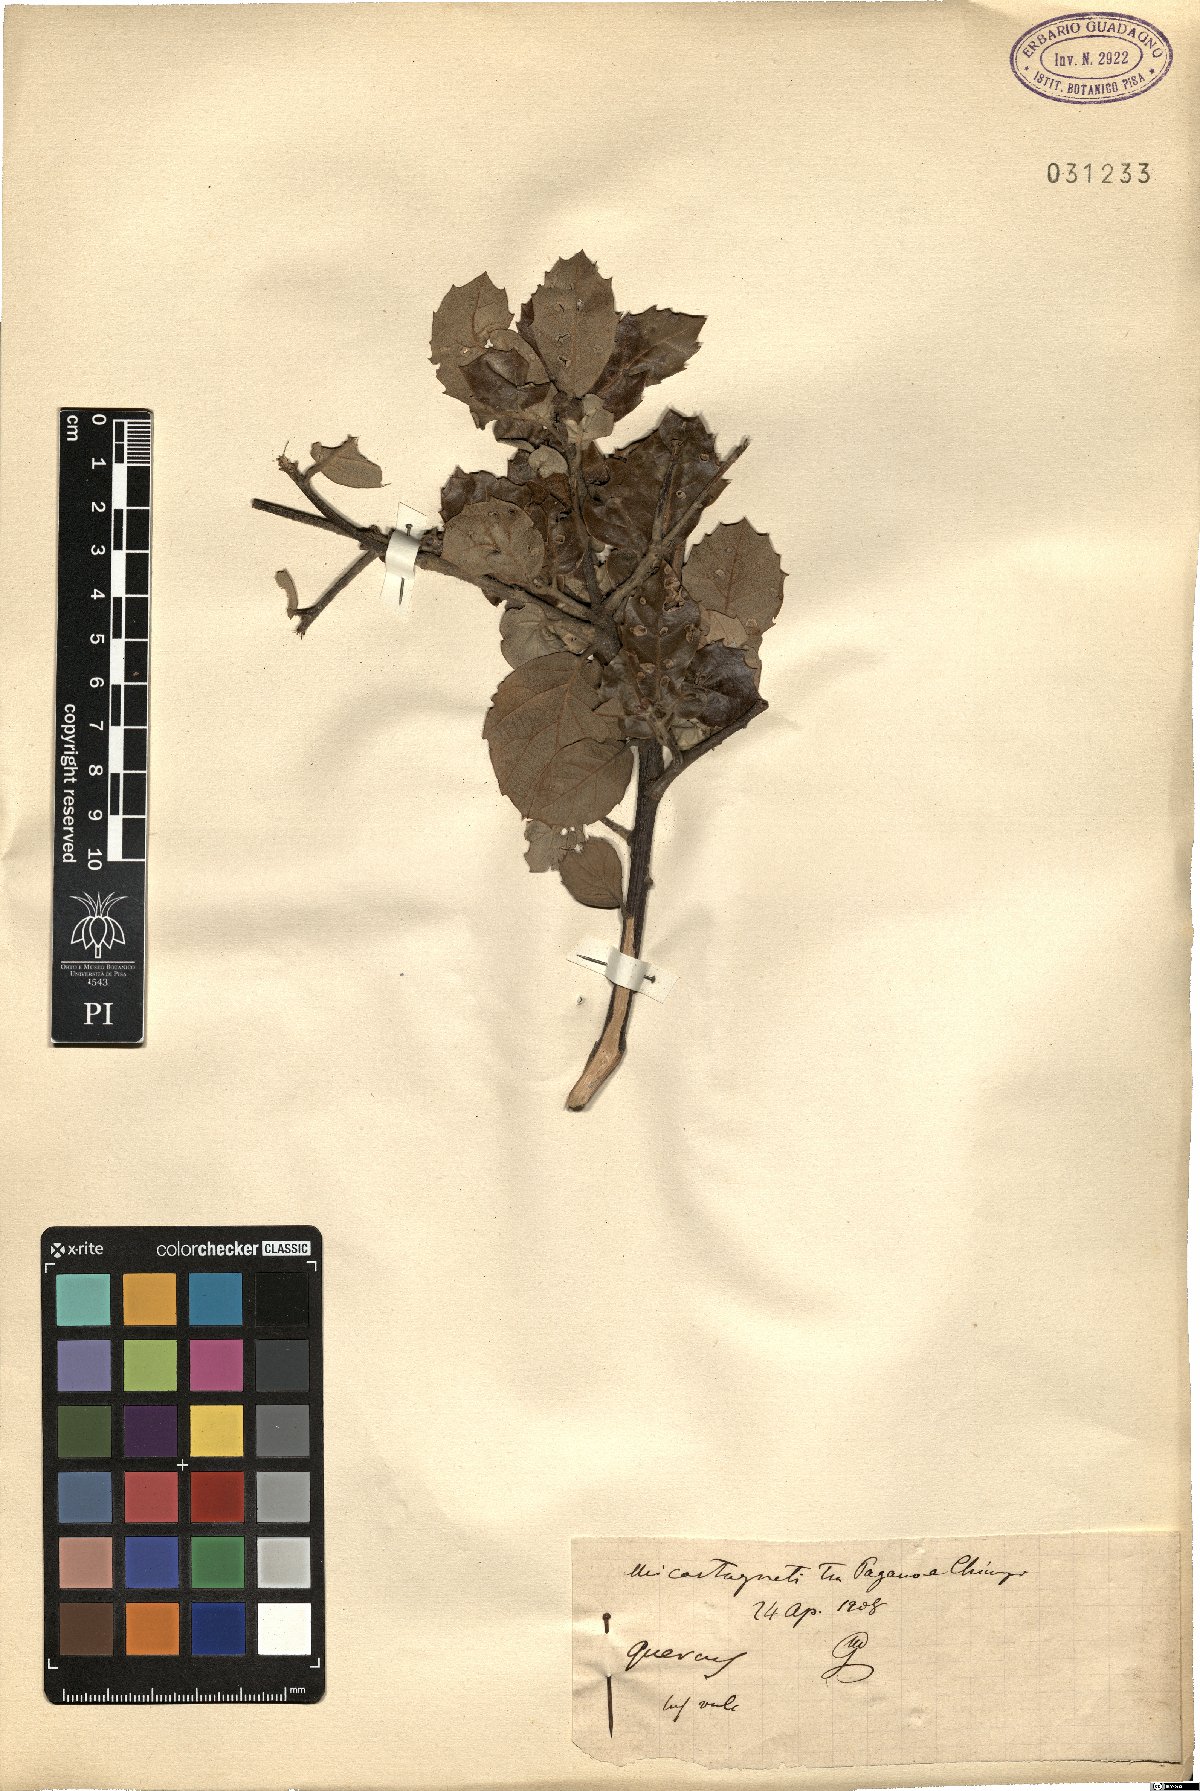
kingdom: Plantae
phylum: Tracheophyta
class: Magnoliopsida
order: Fagales
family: Fagaceae
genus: Quercus
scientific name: Quercus
